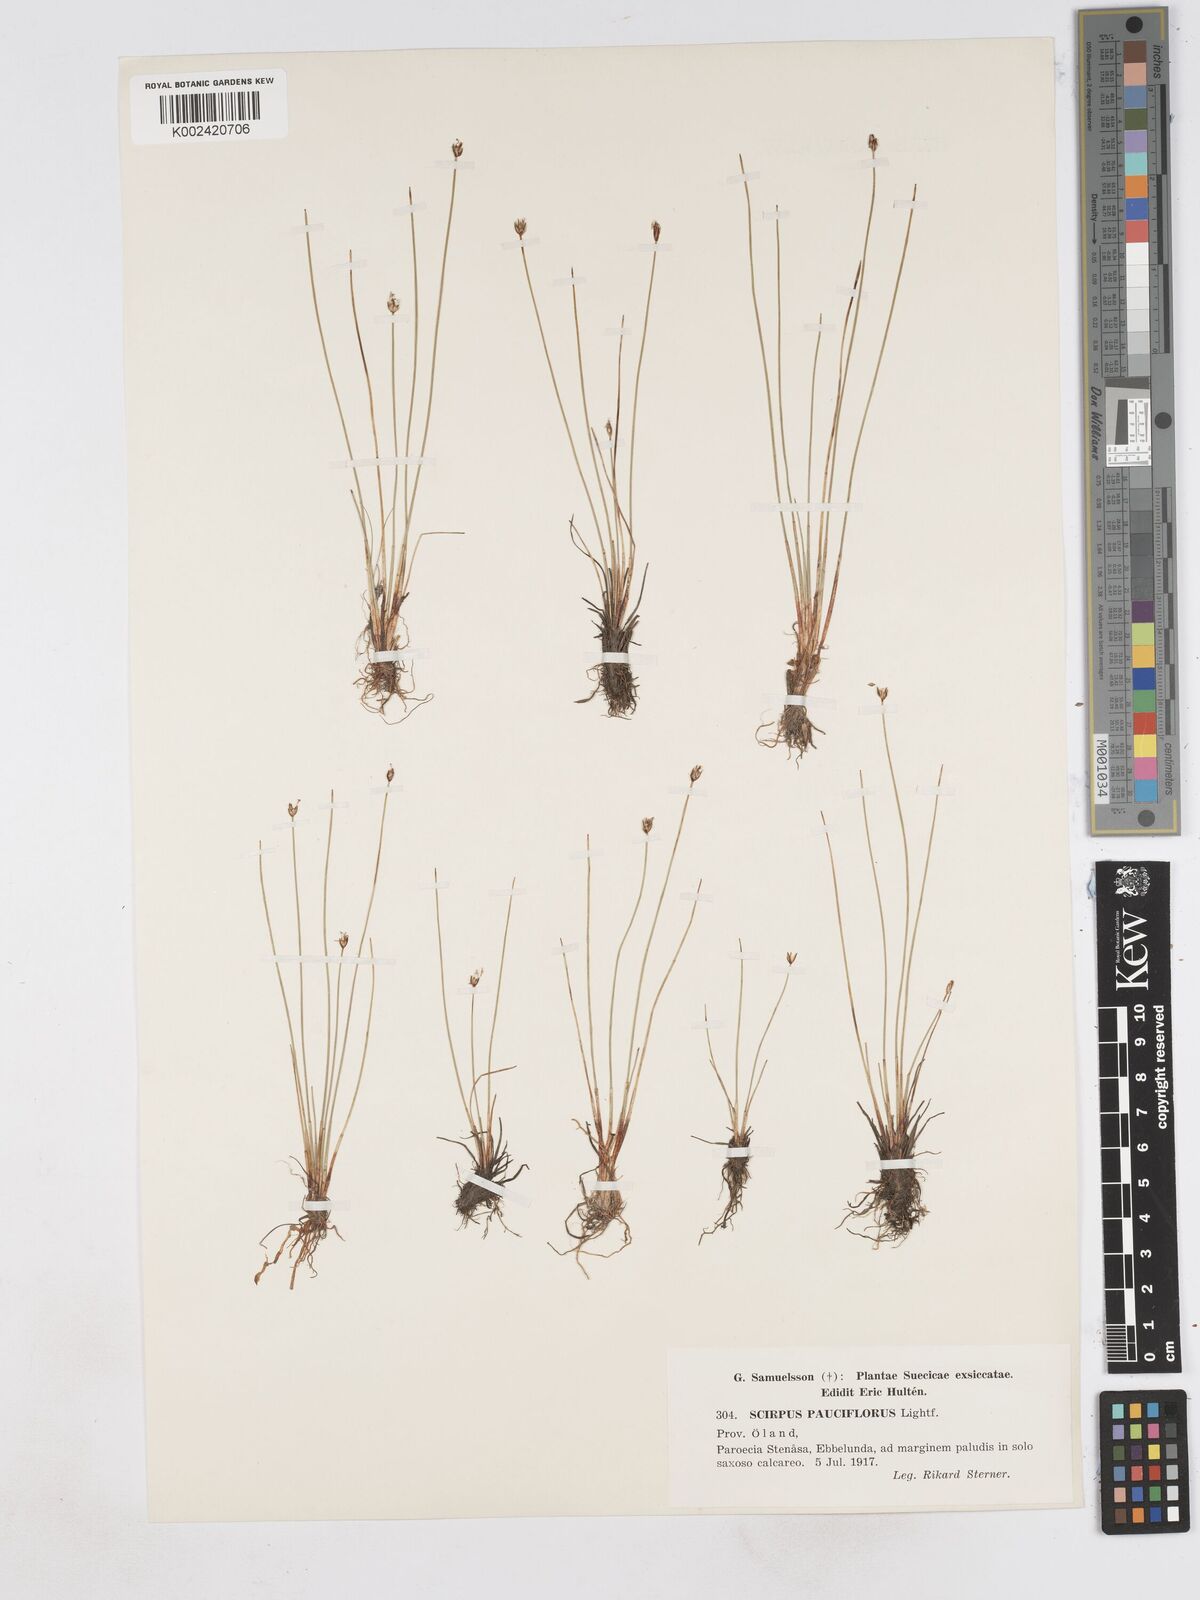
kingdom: Plantae
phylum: Tracheophyta
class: Liliopsida
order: Poales
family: Cyperaceae
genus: Eleocharis
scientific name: Eleocharis quinqueflora
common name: Few-flowered spike-rush
